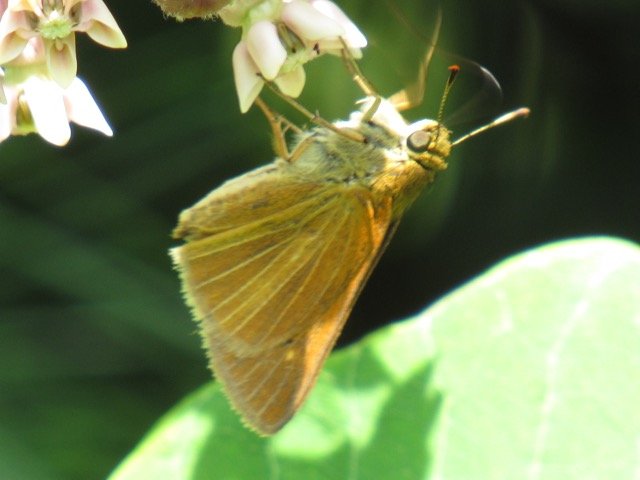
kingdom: Animalia
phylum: Arthropoda
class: Insecta
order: Lepidoptera
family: Hesperiidae
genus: Euphyes
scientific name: Euphyes dion
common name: Dion Skipper
